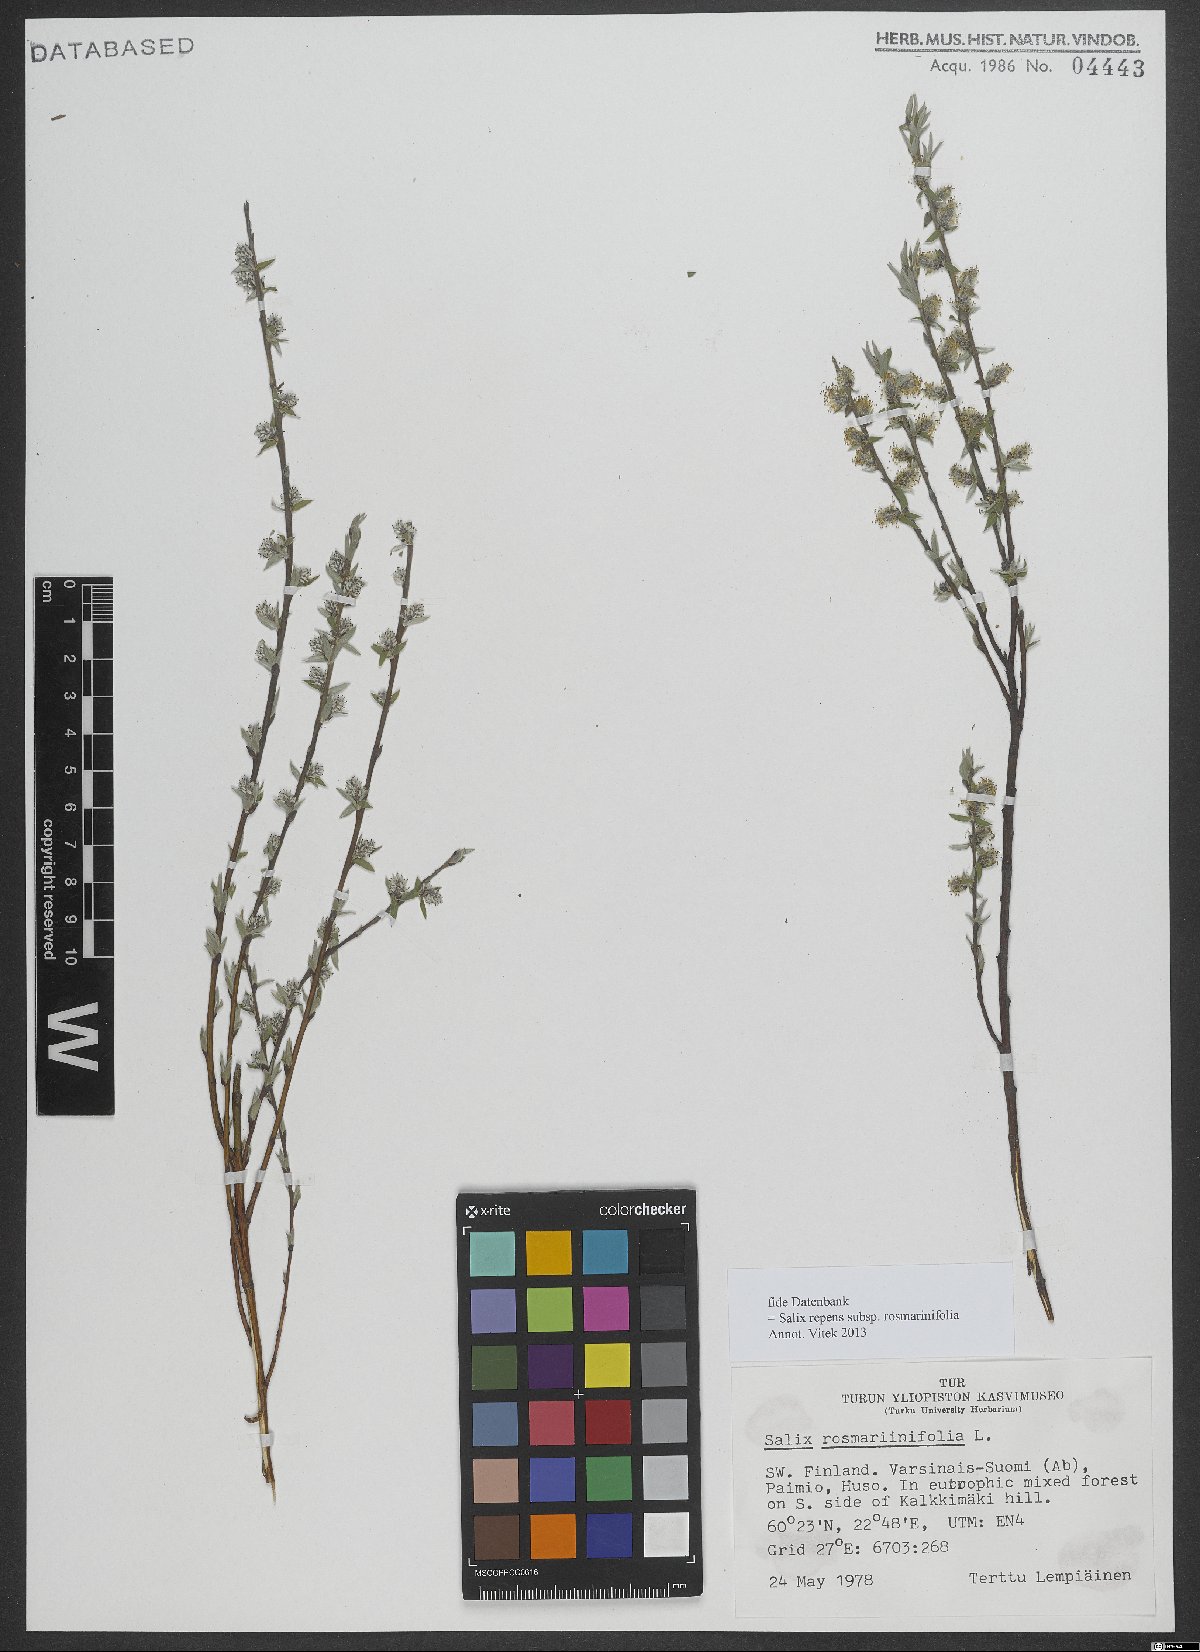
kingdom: Plantae
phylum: Tracheophyta
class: Magnoliopsida
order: Malpighiales
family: Salicaceae
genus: Salix
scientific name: Salix repens
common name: Creeping willow
